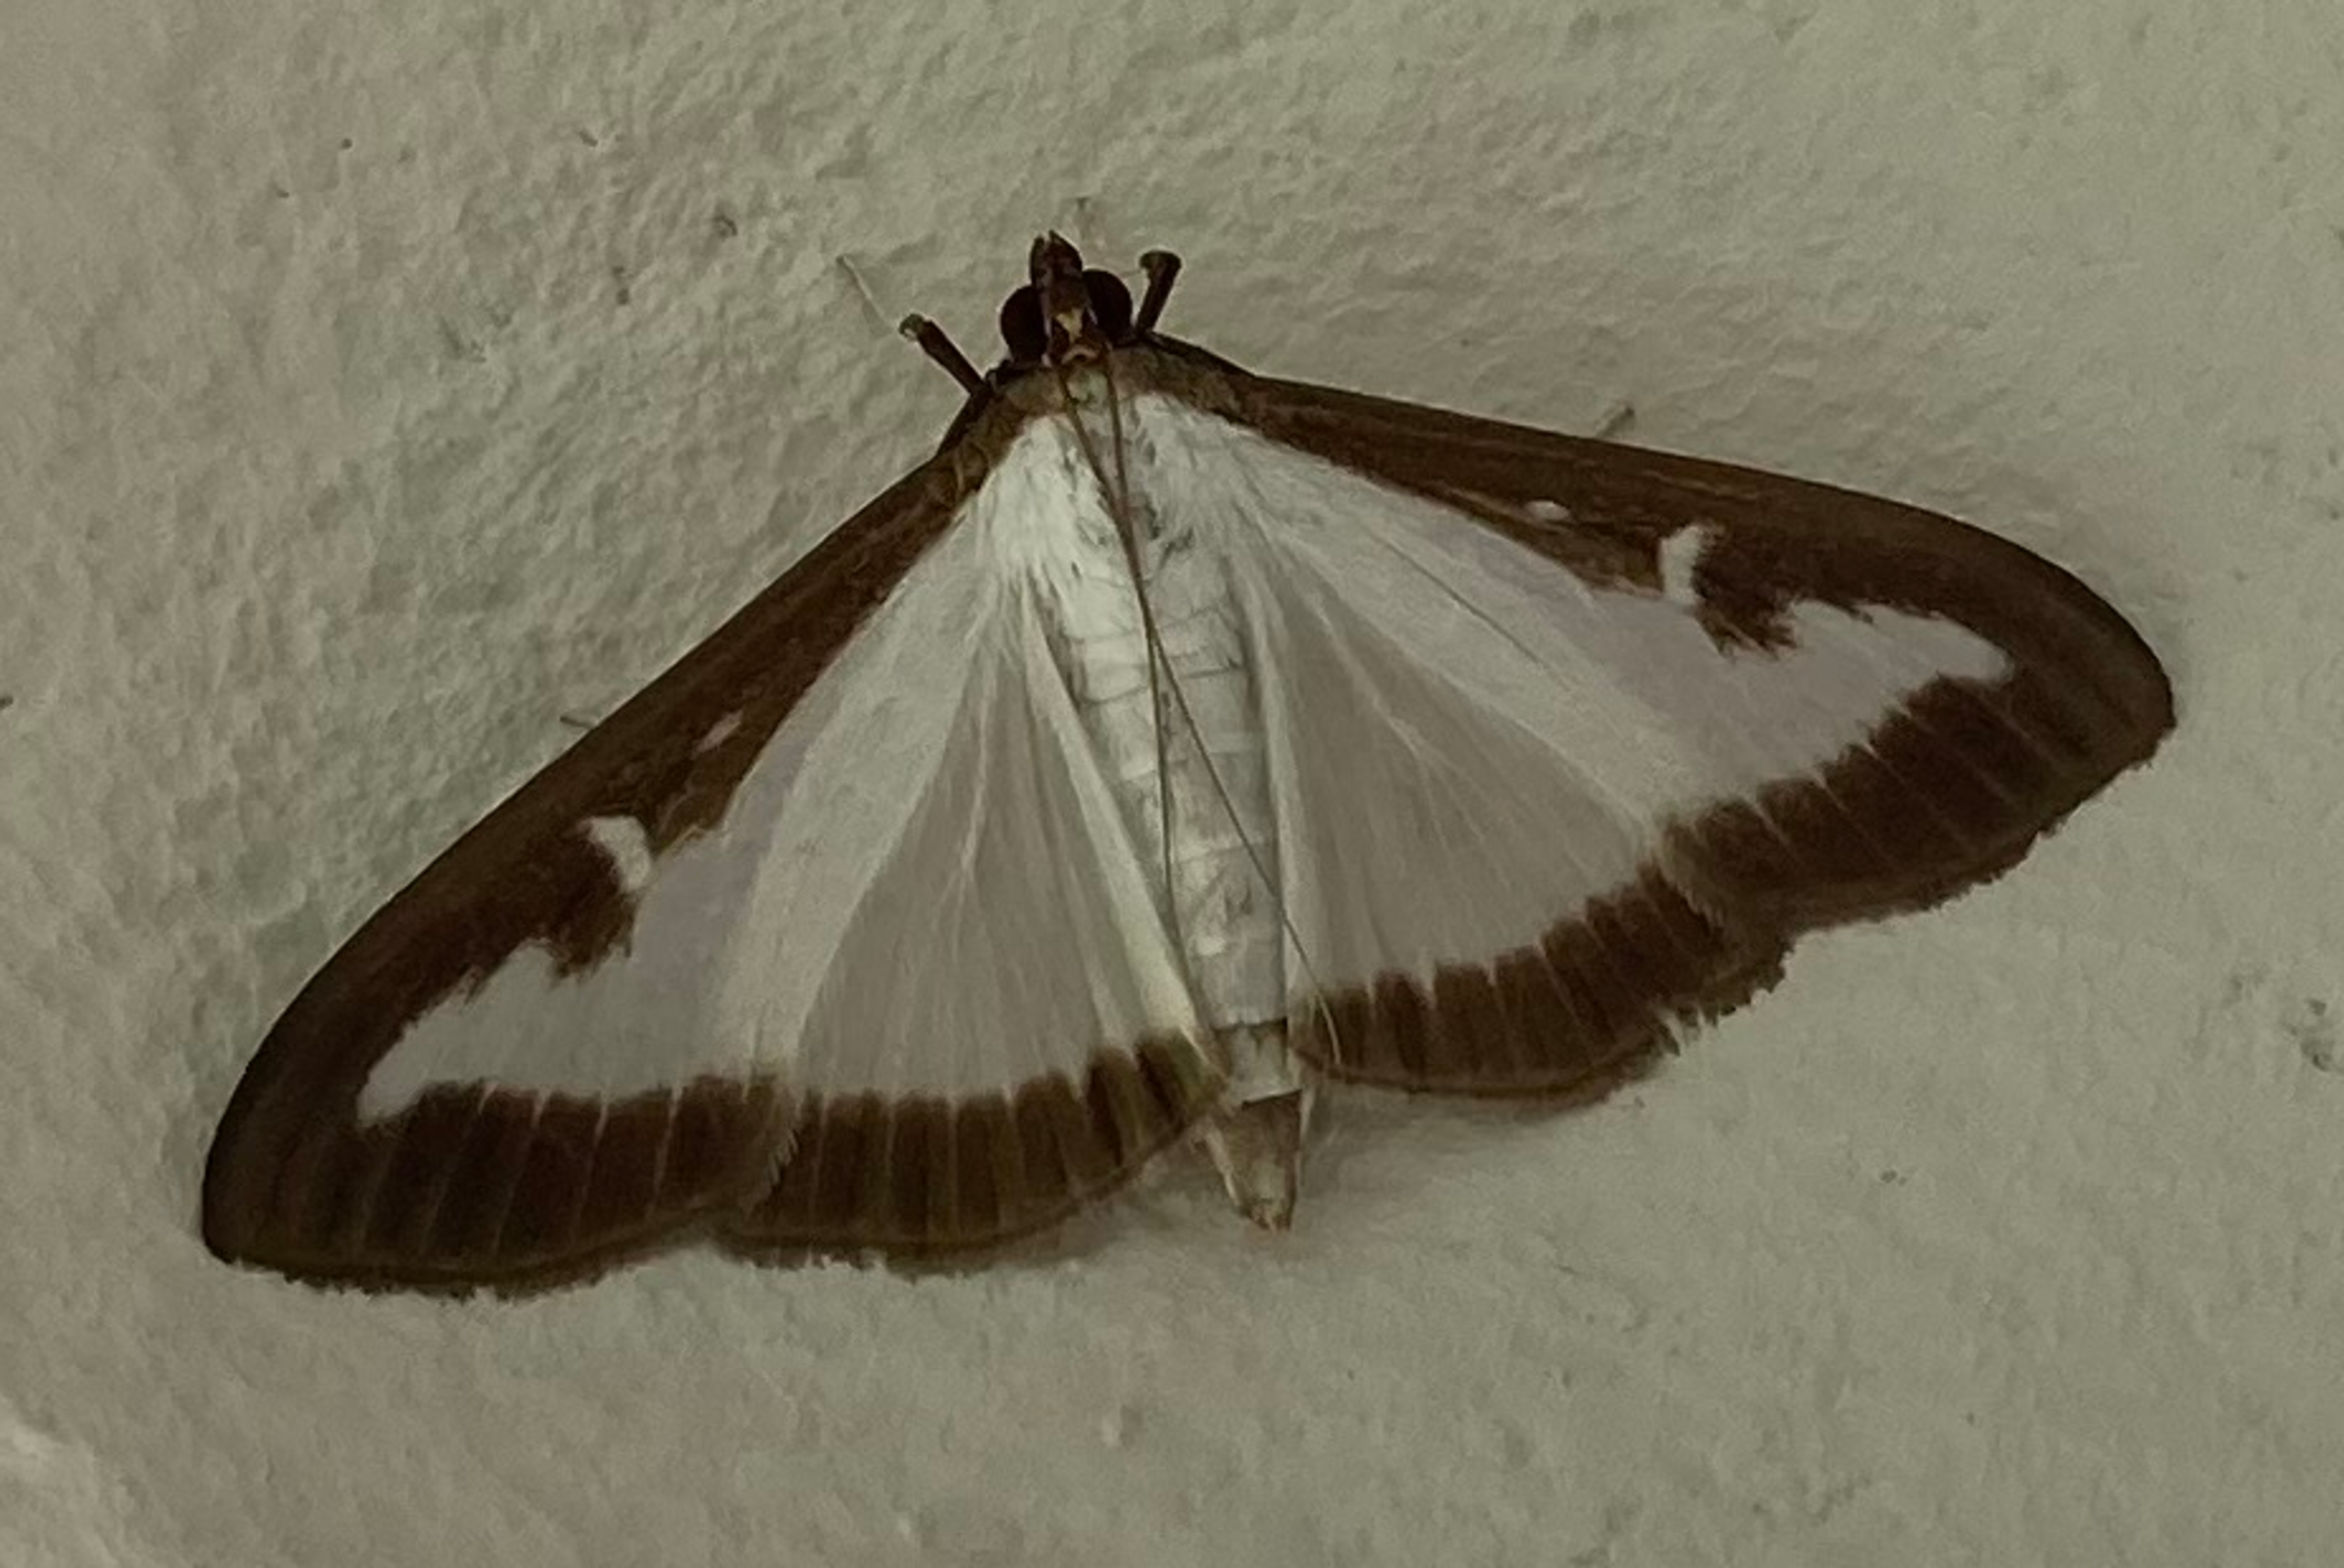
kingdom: Animalia
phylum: Arthropoda
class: Insecta
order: Lepidoptera
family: Crambidae
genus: Cydalima
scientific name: Cydalima perspectalis
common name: Buksbomhalvmøl
